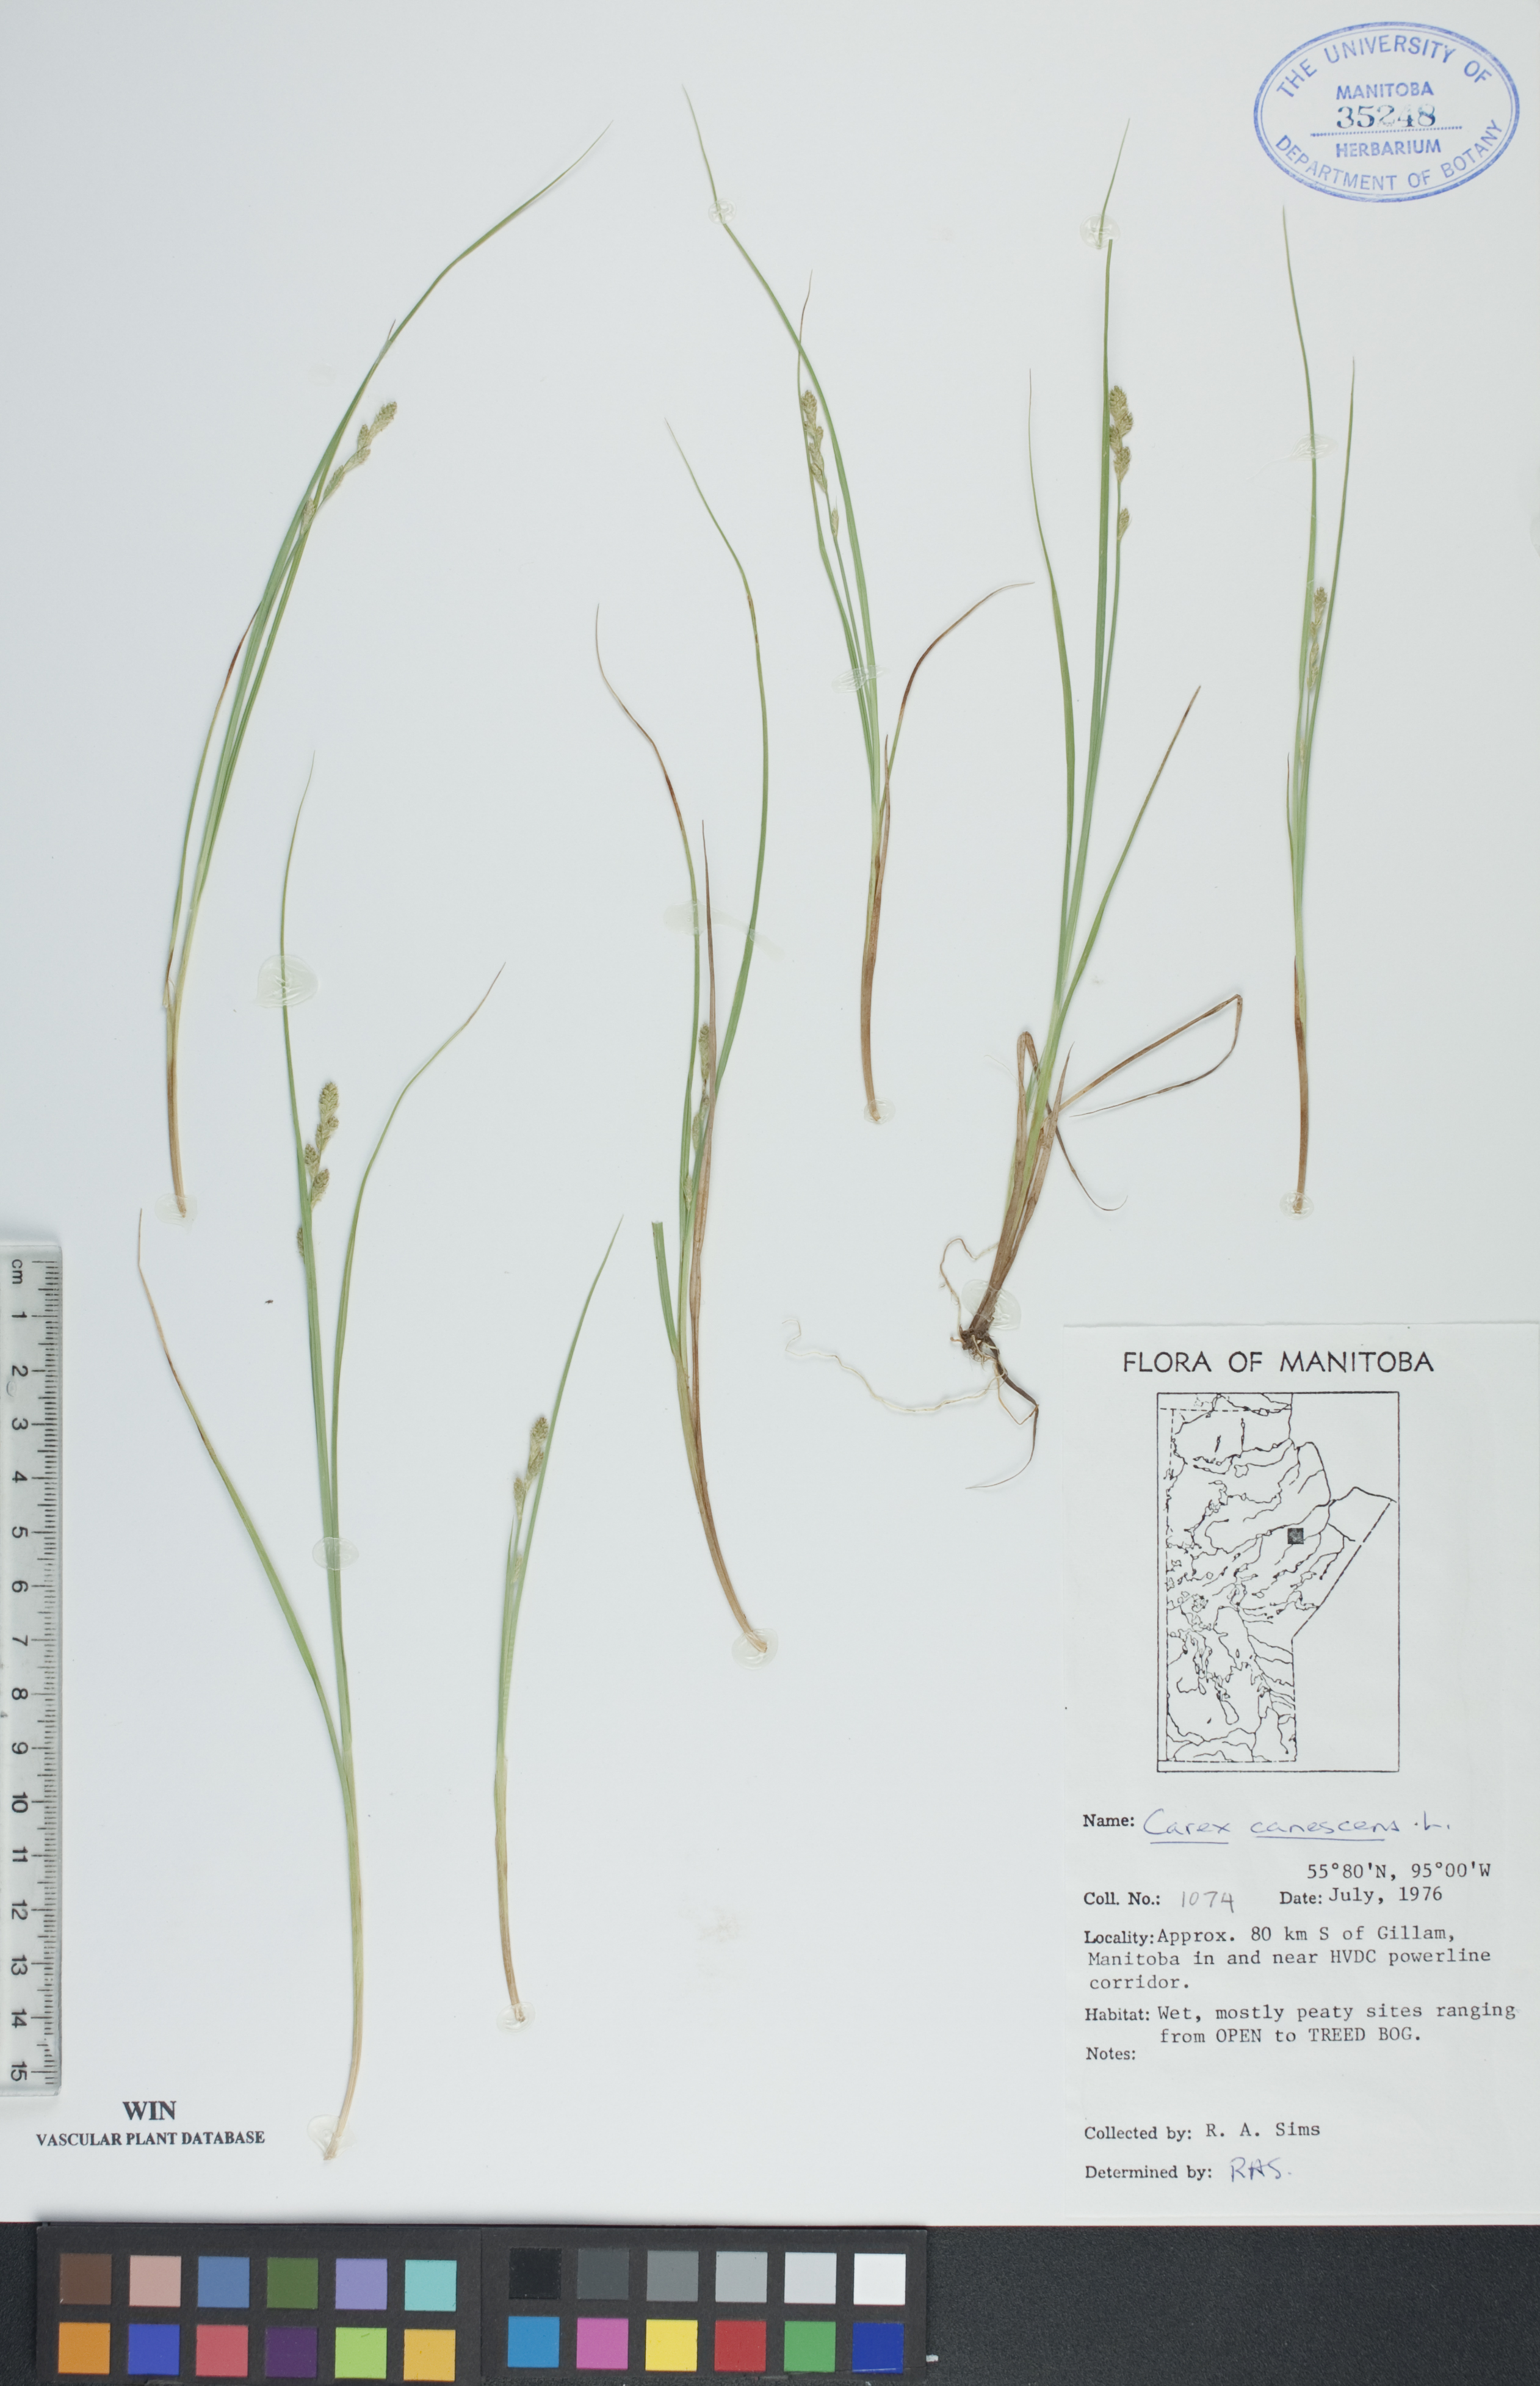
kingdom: Plantae
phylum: Tracheophyta
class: Liliopsida
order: Poales
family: Cyperaceae
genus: Carex
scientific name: Carex canescens
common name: White sedge
